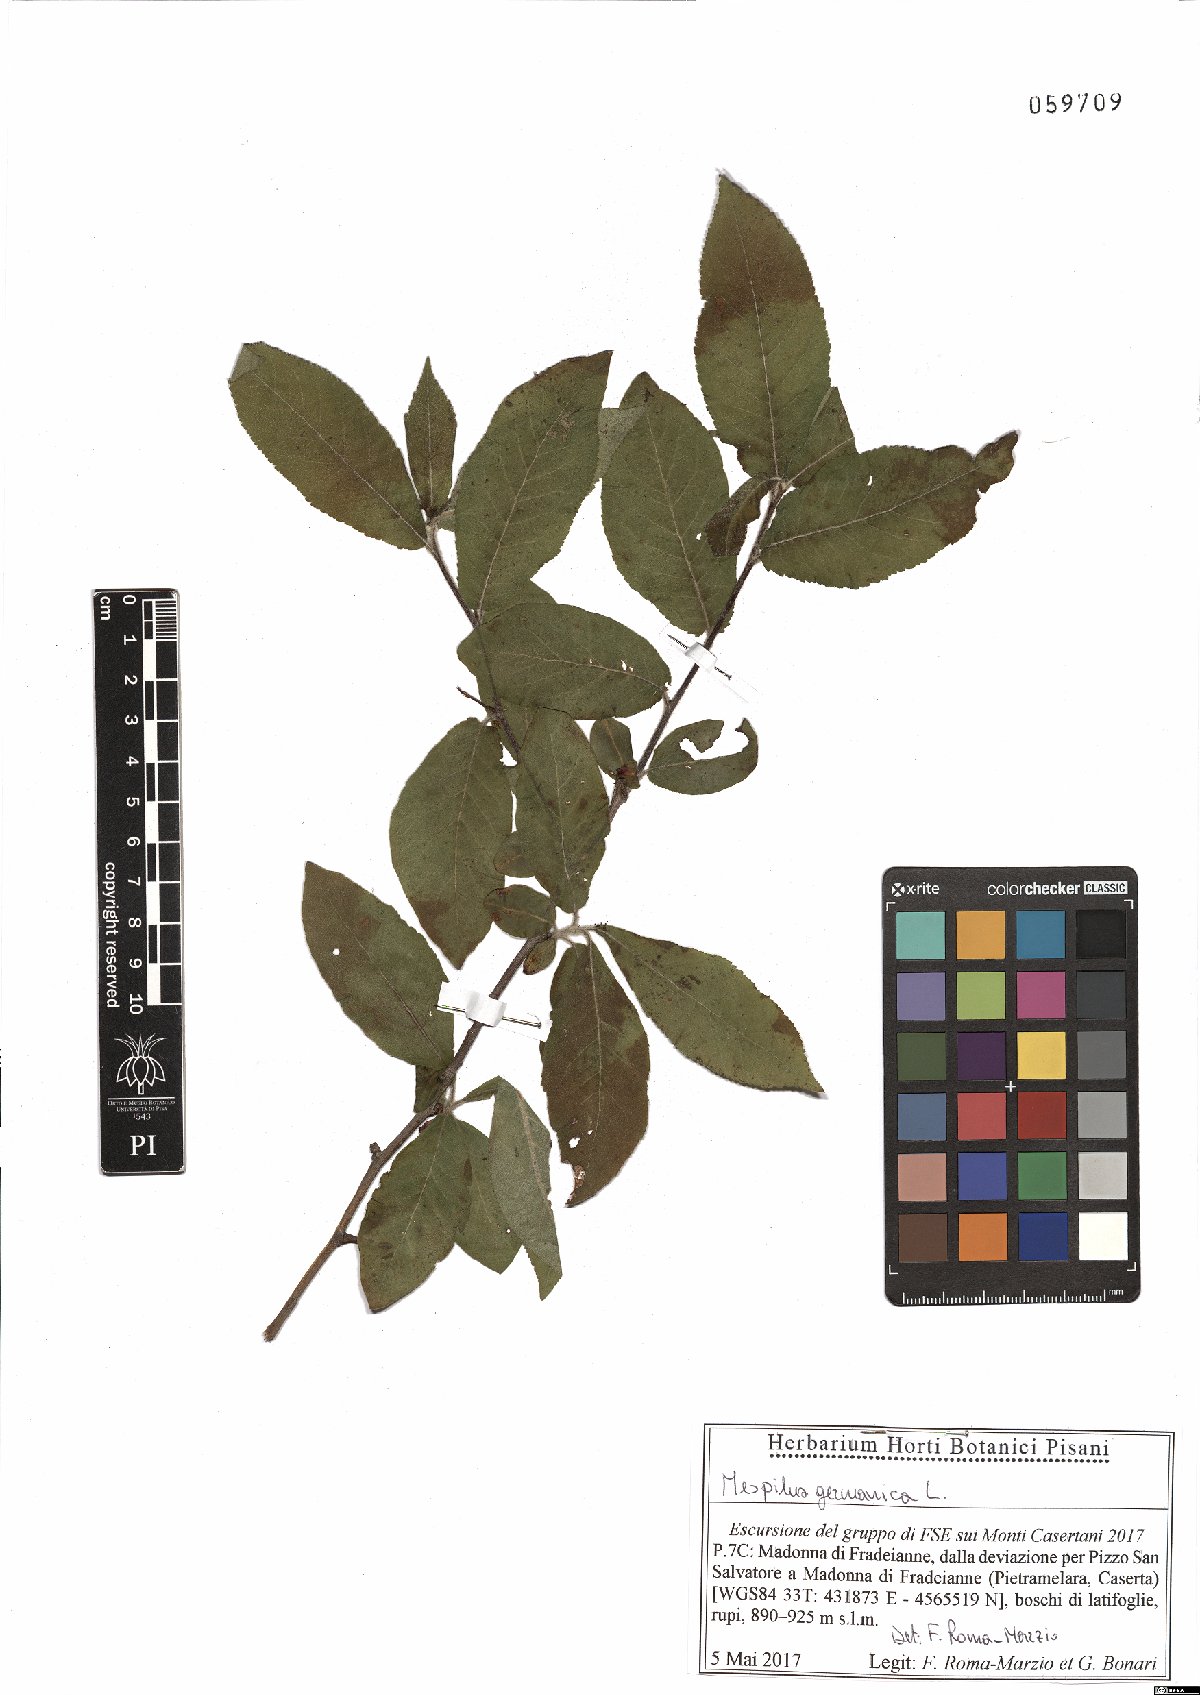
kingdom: Plantae
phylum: Tracheophyta
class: Magnoliopsida
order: Rosales
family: Rosaceae
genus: Mespilus
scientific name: Mespilus germanica
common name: Medlar
